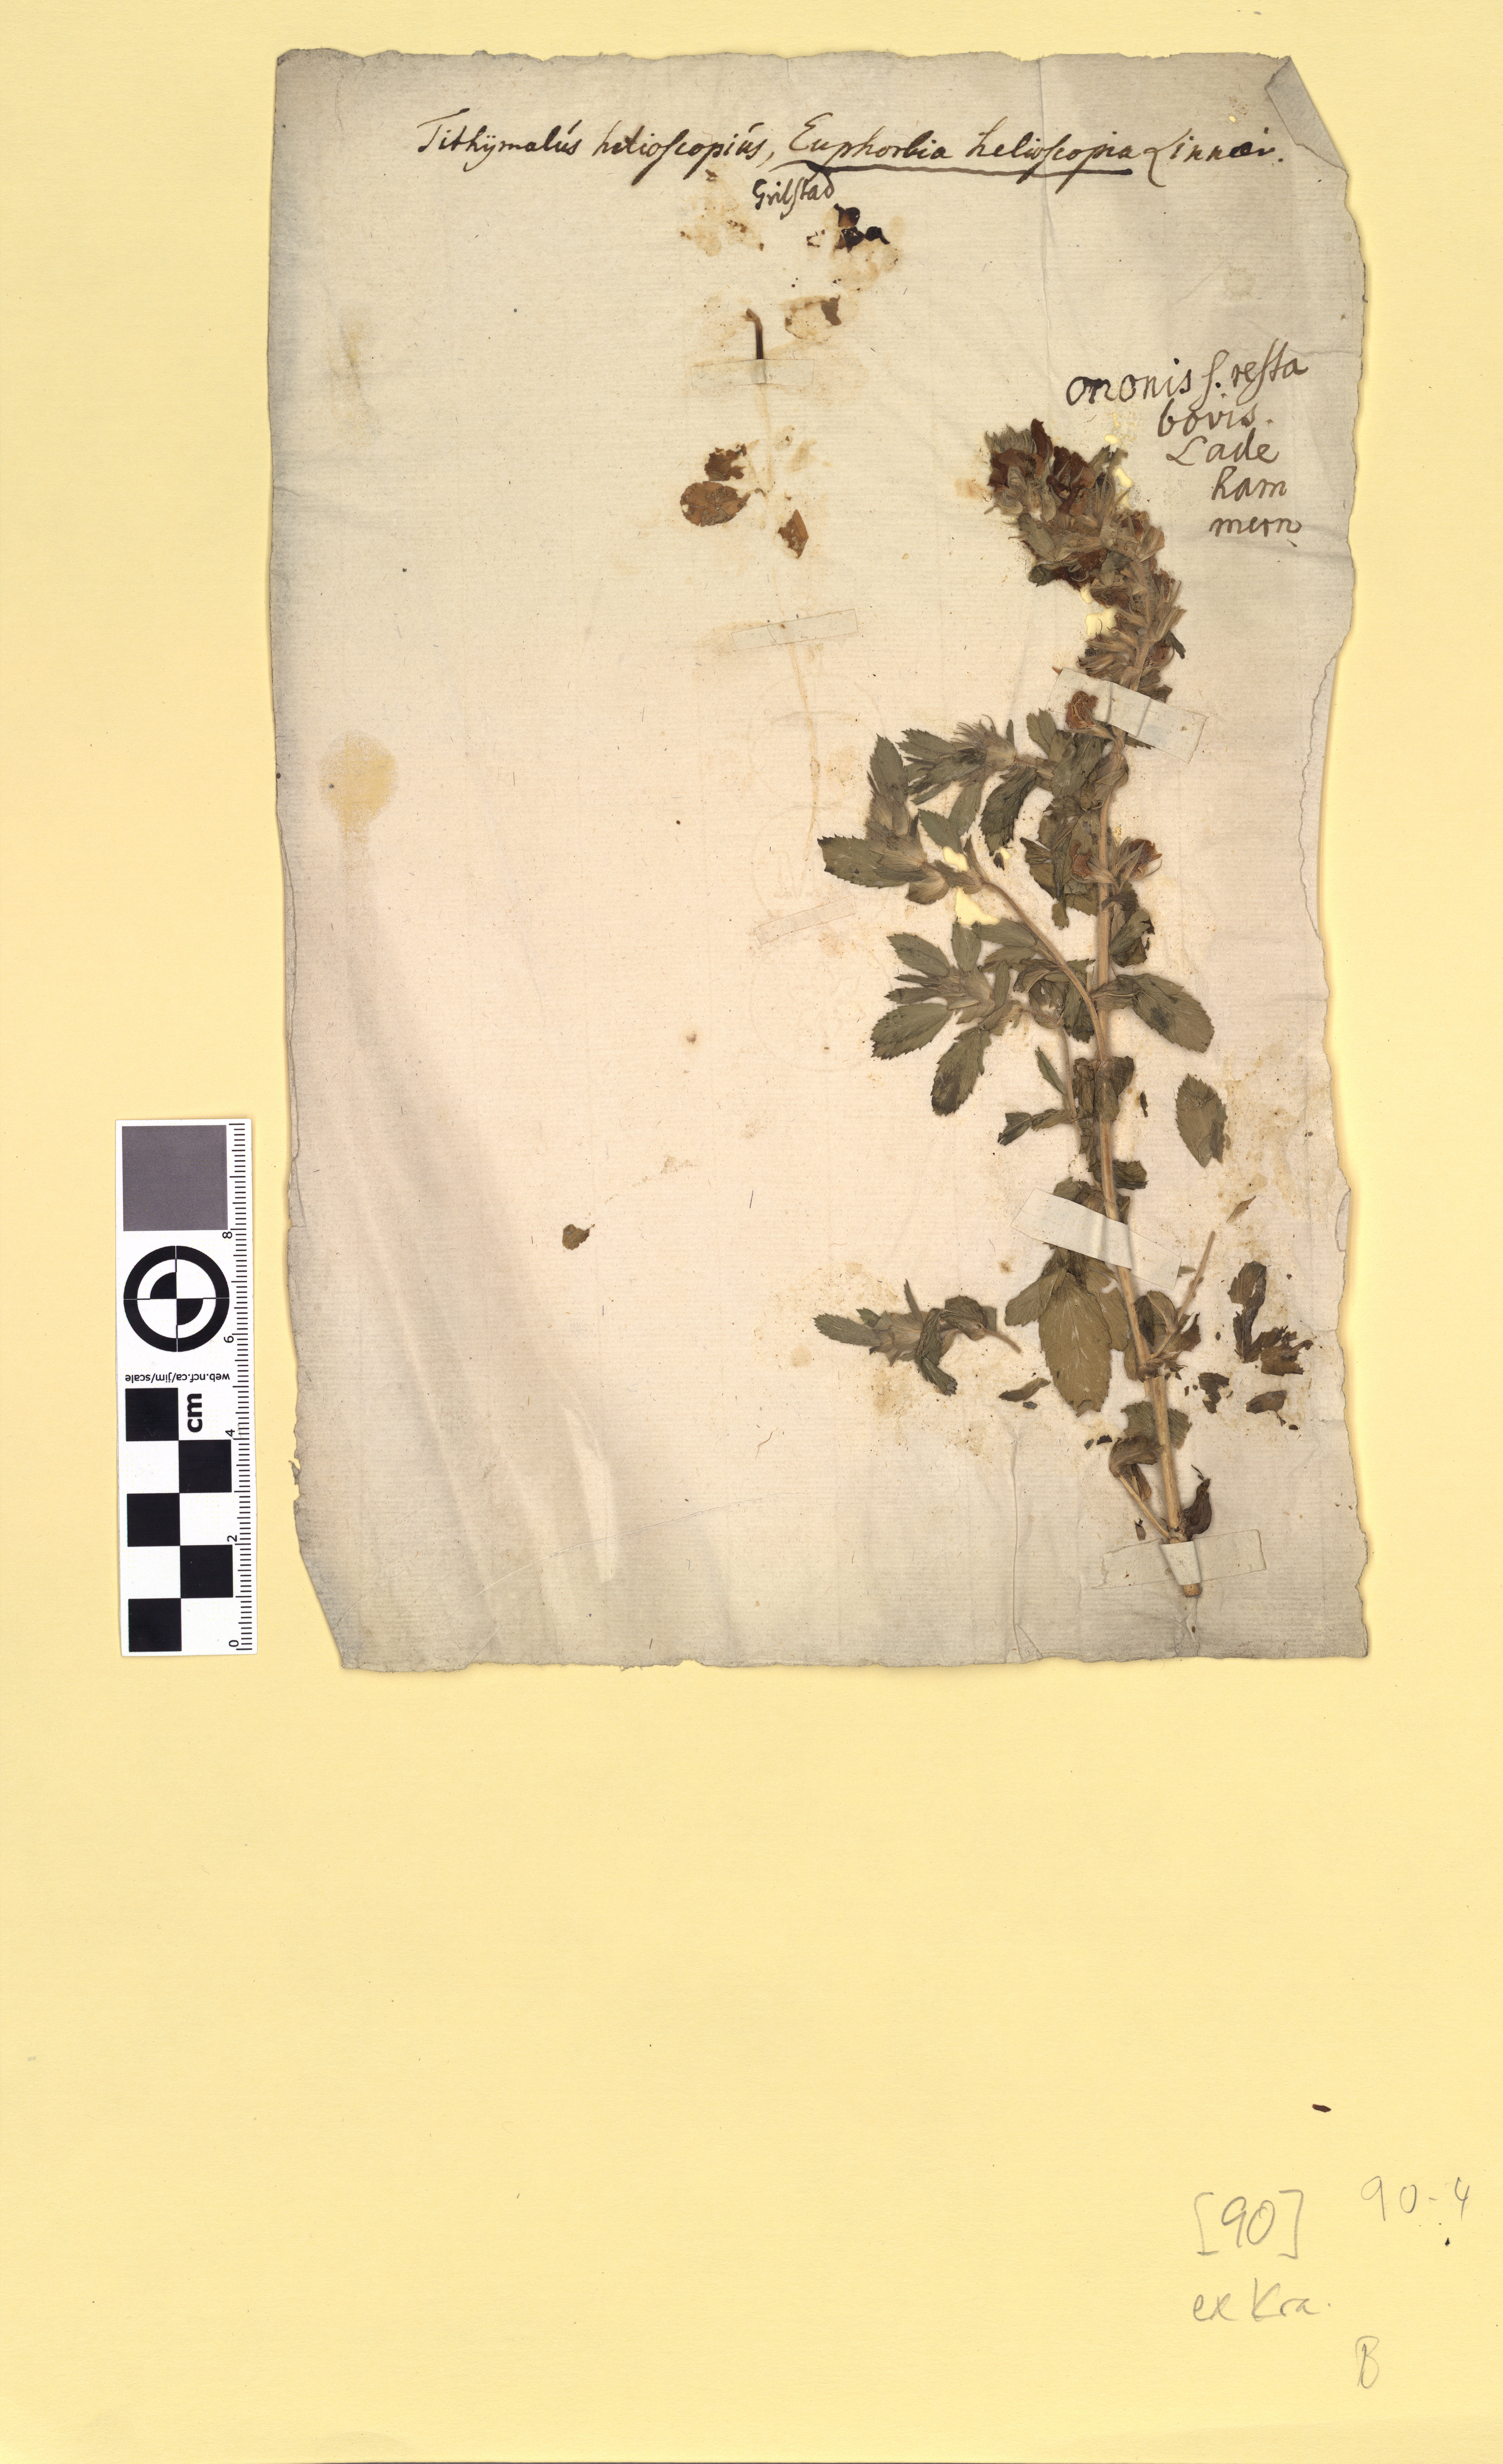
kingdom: Plantae
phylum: Tracheophyta
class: Magnoliopsida
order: Fabales
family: Fabaceae
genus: Ononis
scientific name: Ononis arvensis
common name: Field restharrow
